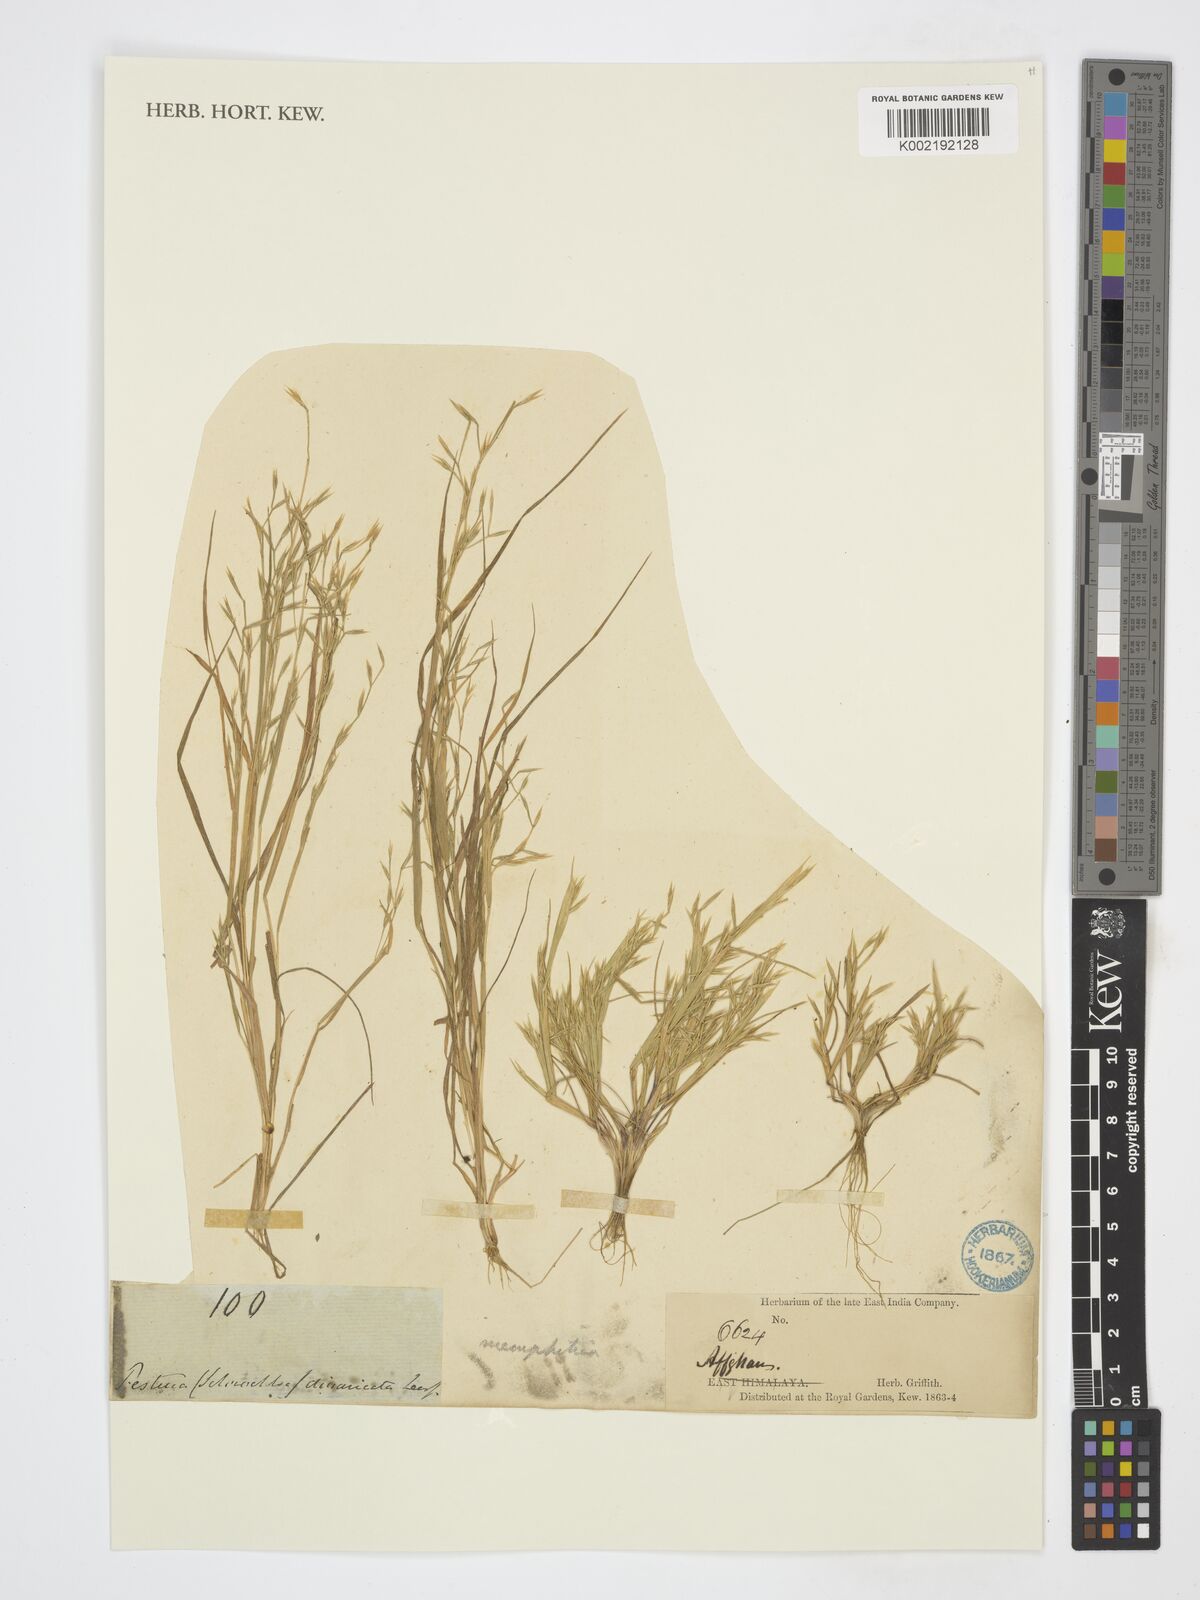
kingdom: Plantae
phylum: Tracheophyta
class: Liliopsida
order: Poales
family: Poaceae
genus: Cutandia
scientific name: Cutandia
